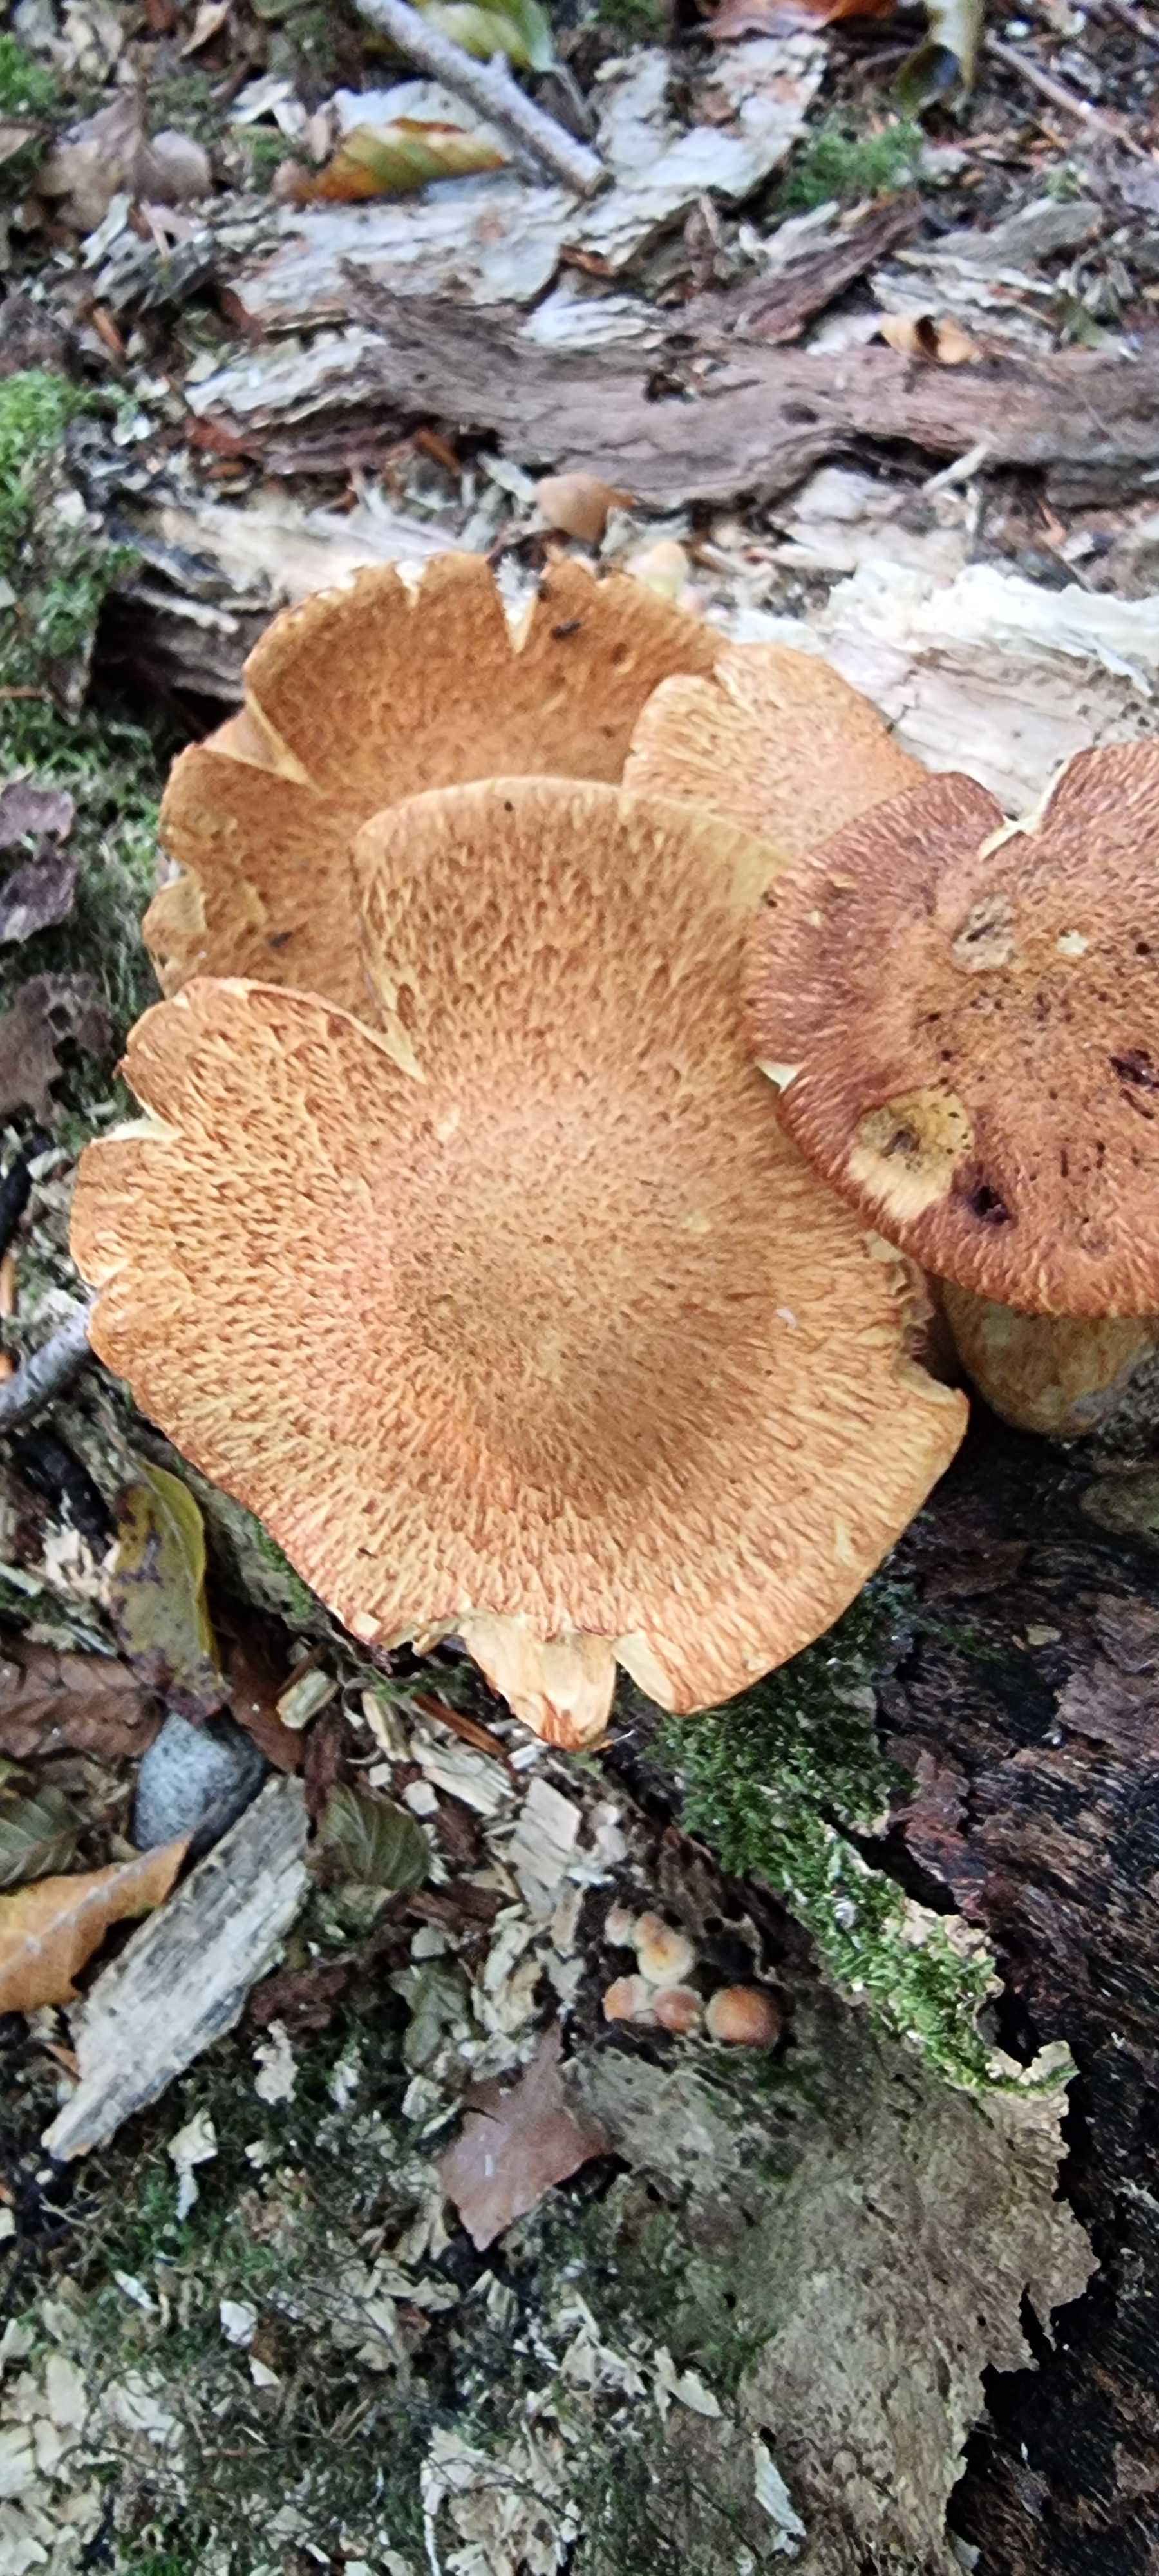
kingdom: Fungi
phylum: Basidiomycota
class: Agaricomycetes
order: Agaricales
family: Hymenogastraceae
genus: Gymnopilus
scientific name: Gymnopilus spectabilis
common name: fibret flammehat
